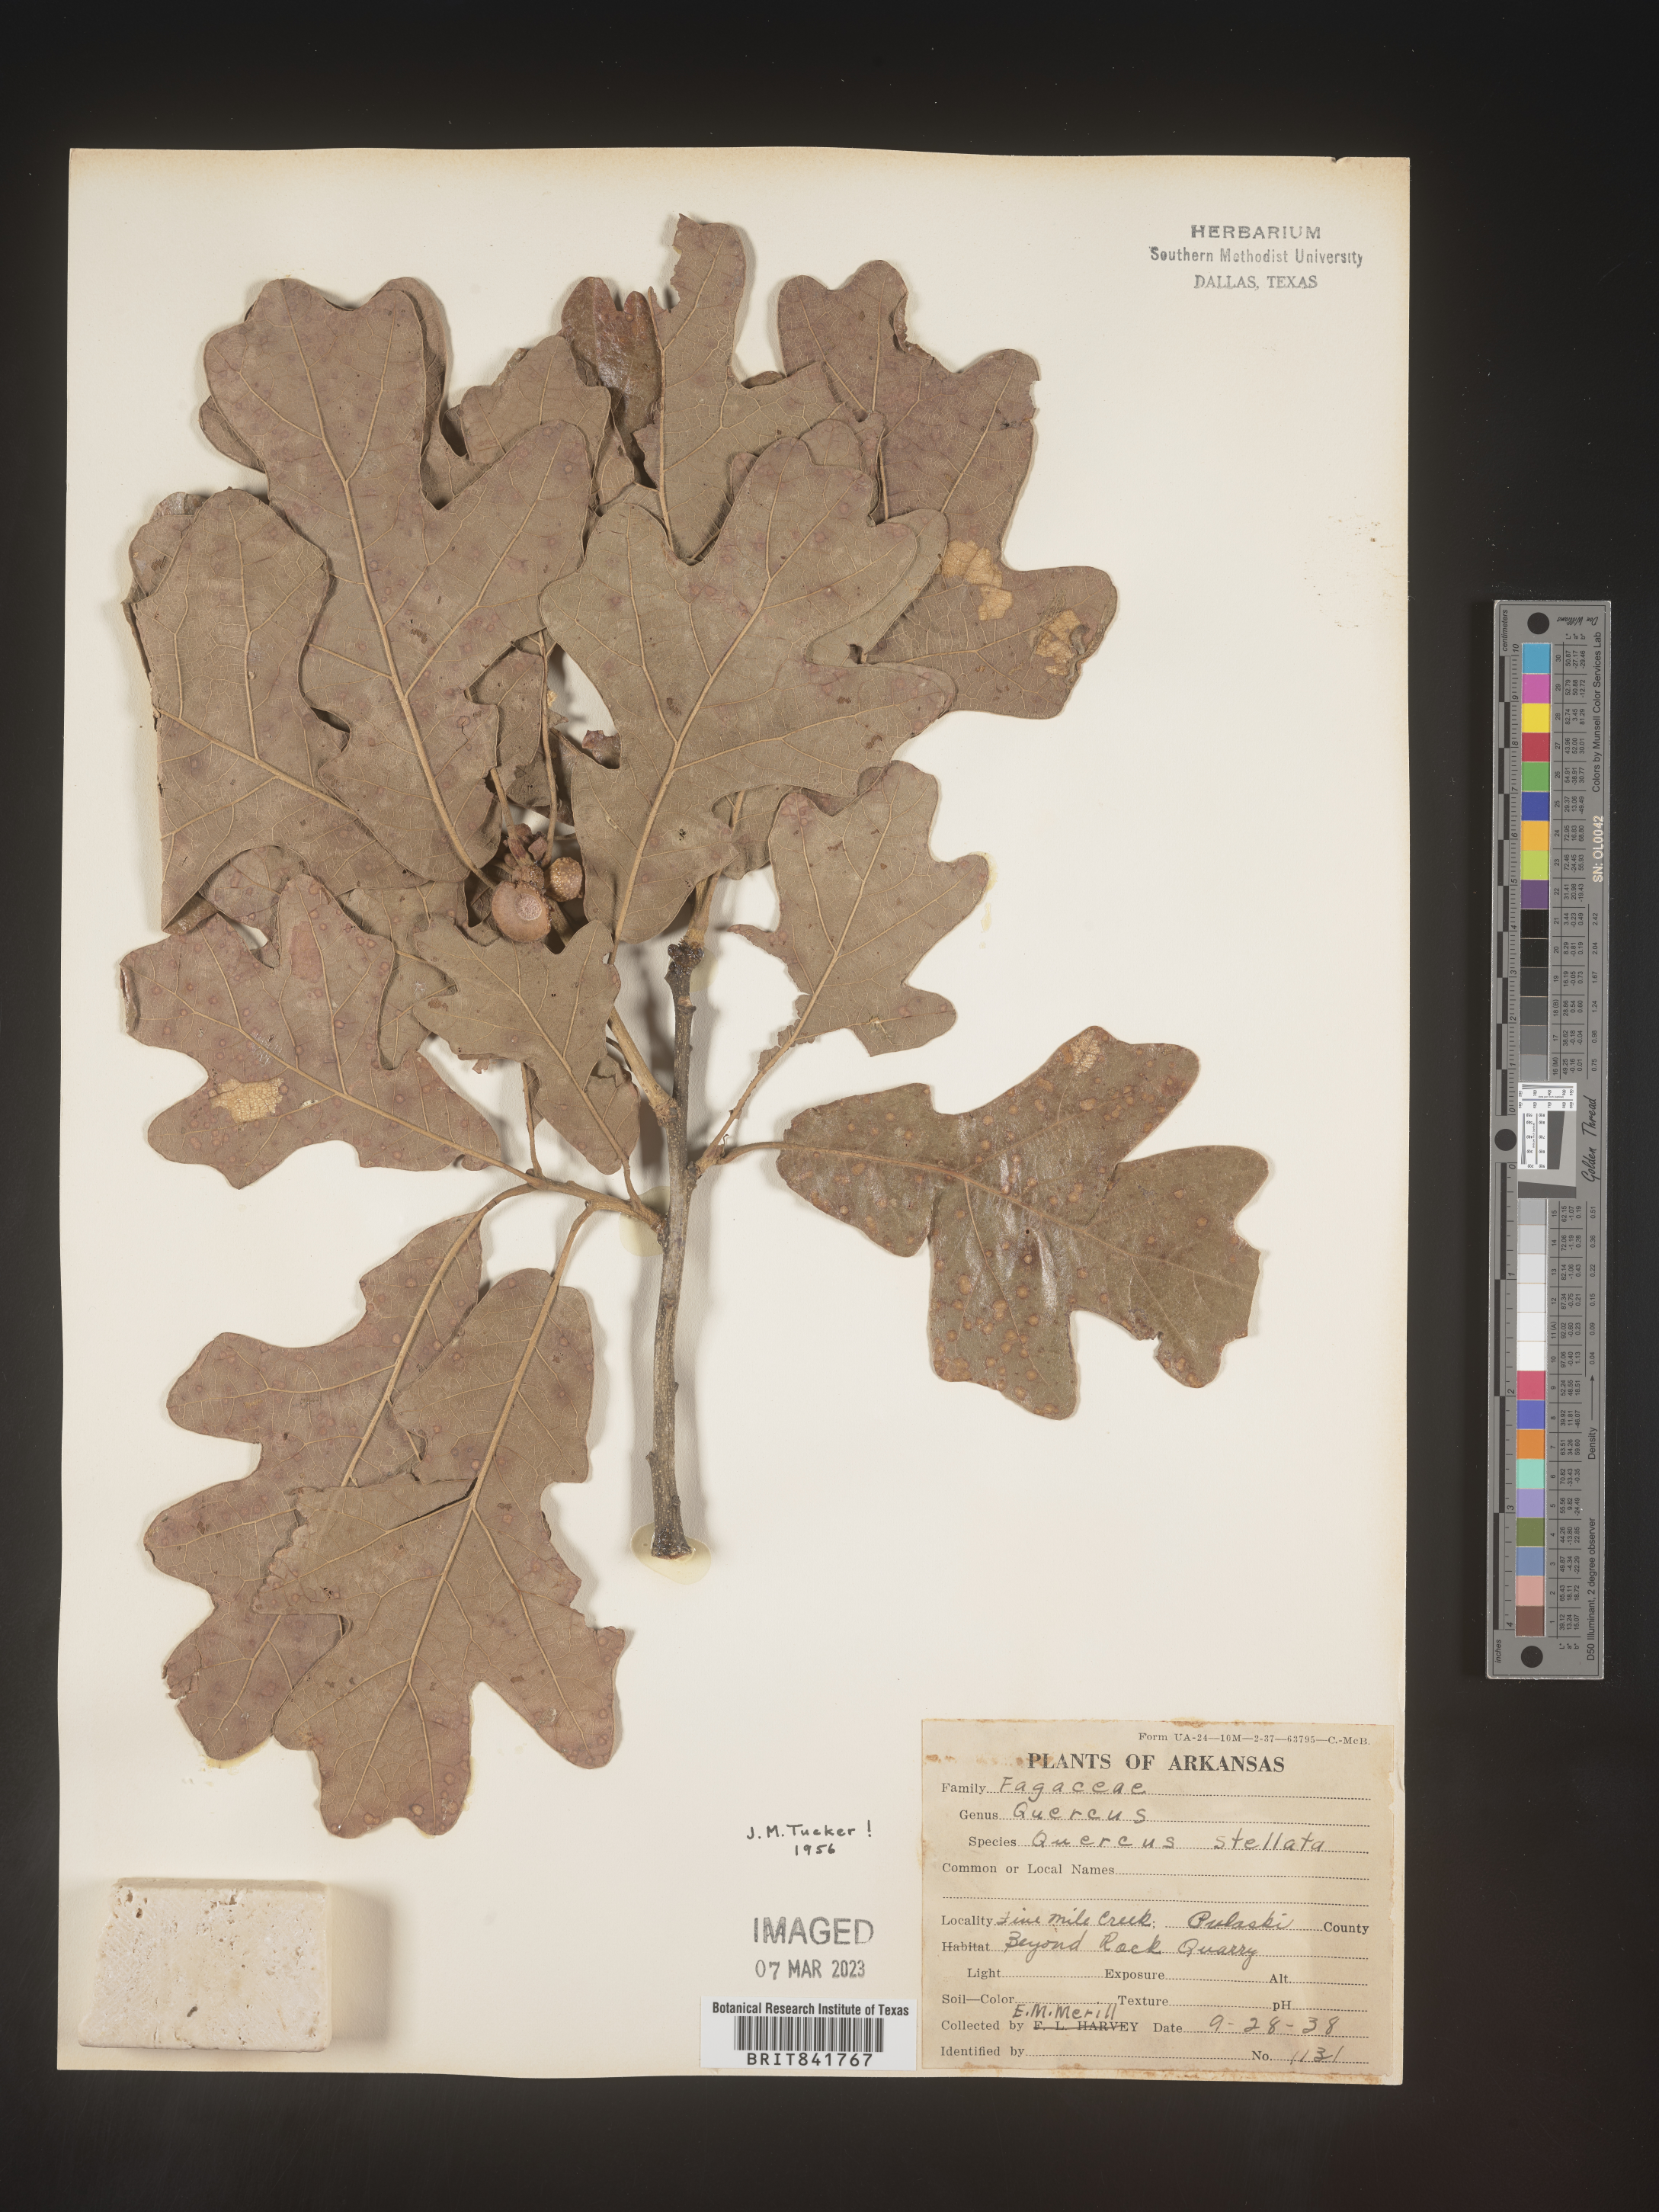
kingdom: Plantae
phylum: Tracheophyta
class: Magnoliopsida
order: Fagales
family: Fagaceae
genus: Quercus
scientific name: Quercus stellata
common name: Post oak
